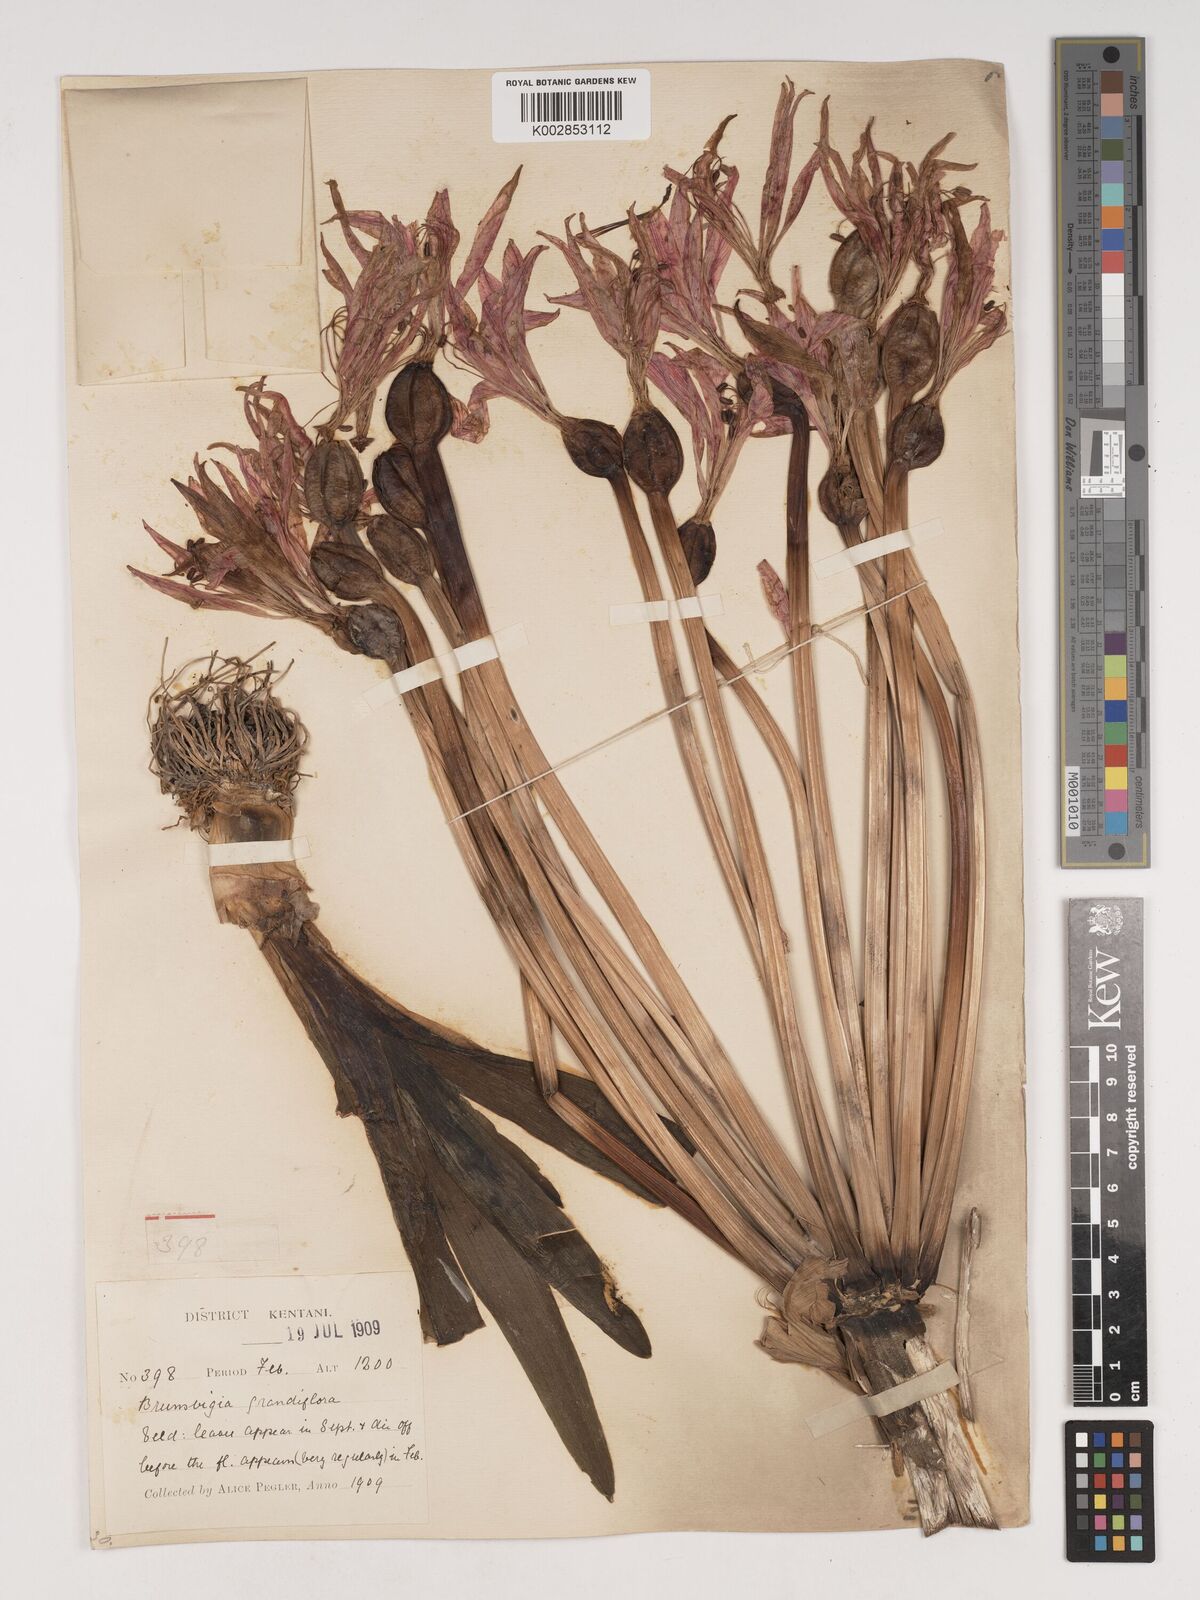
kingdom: Plantae
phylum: Tracheophyta
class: Liliopsida
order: Asparagales
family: Amaryllidaceae
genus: Brunsvigia
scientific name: Brunsvigia grandiflora
